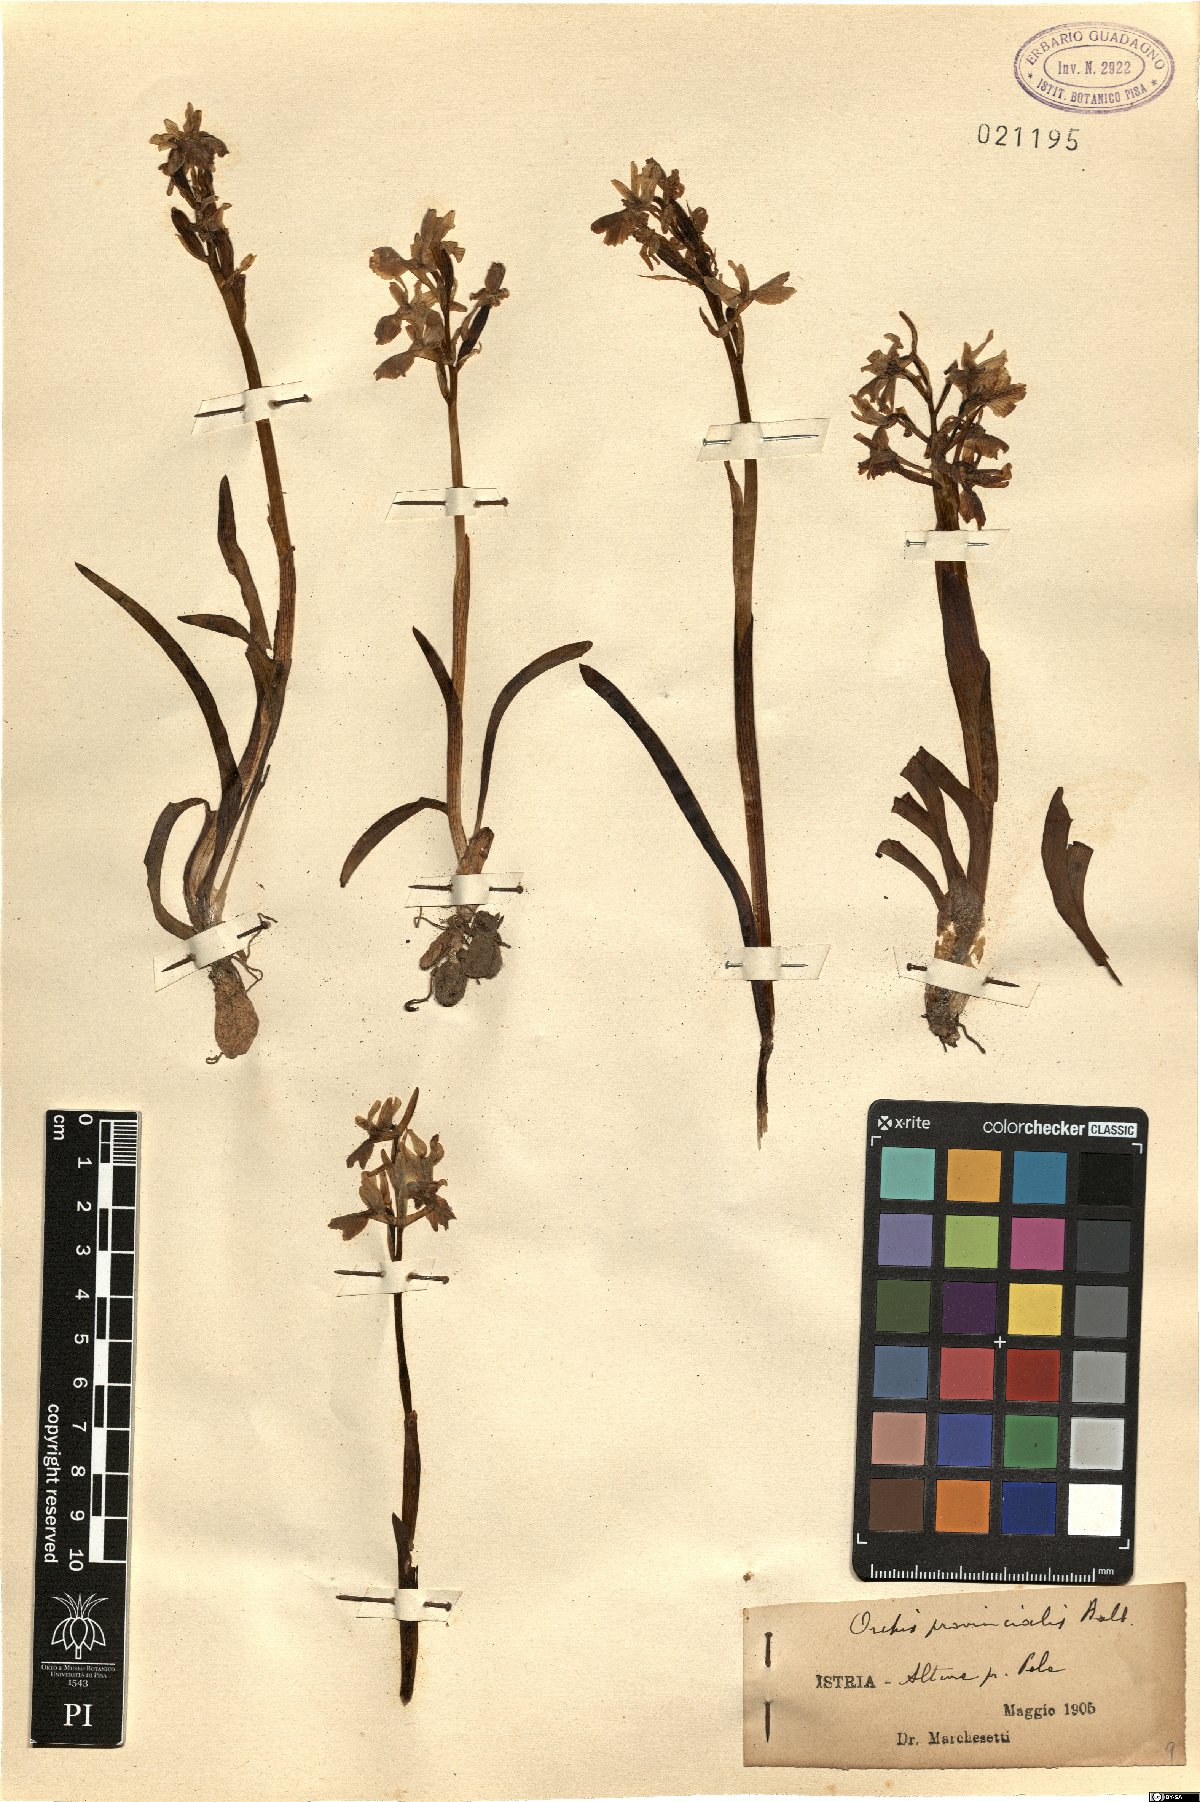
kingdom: Plantae
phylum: Tracheophyta
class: Liliopsida
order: Asparagales
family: Orchidaceae
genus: Orchis
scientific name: Orchis provincialis
